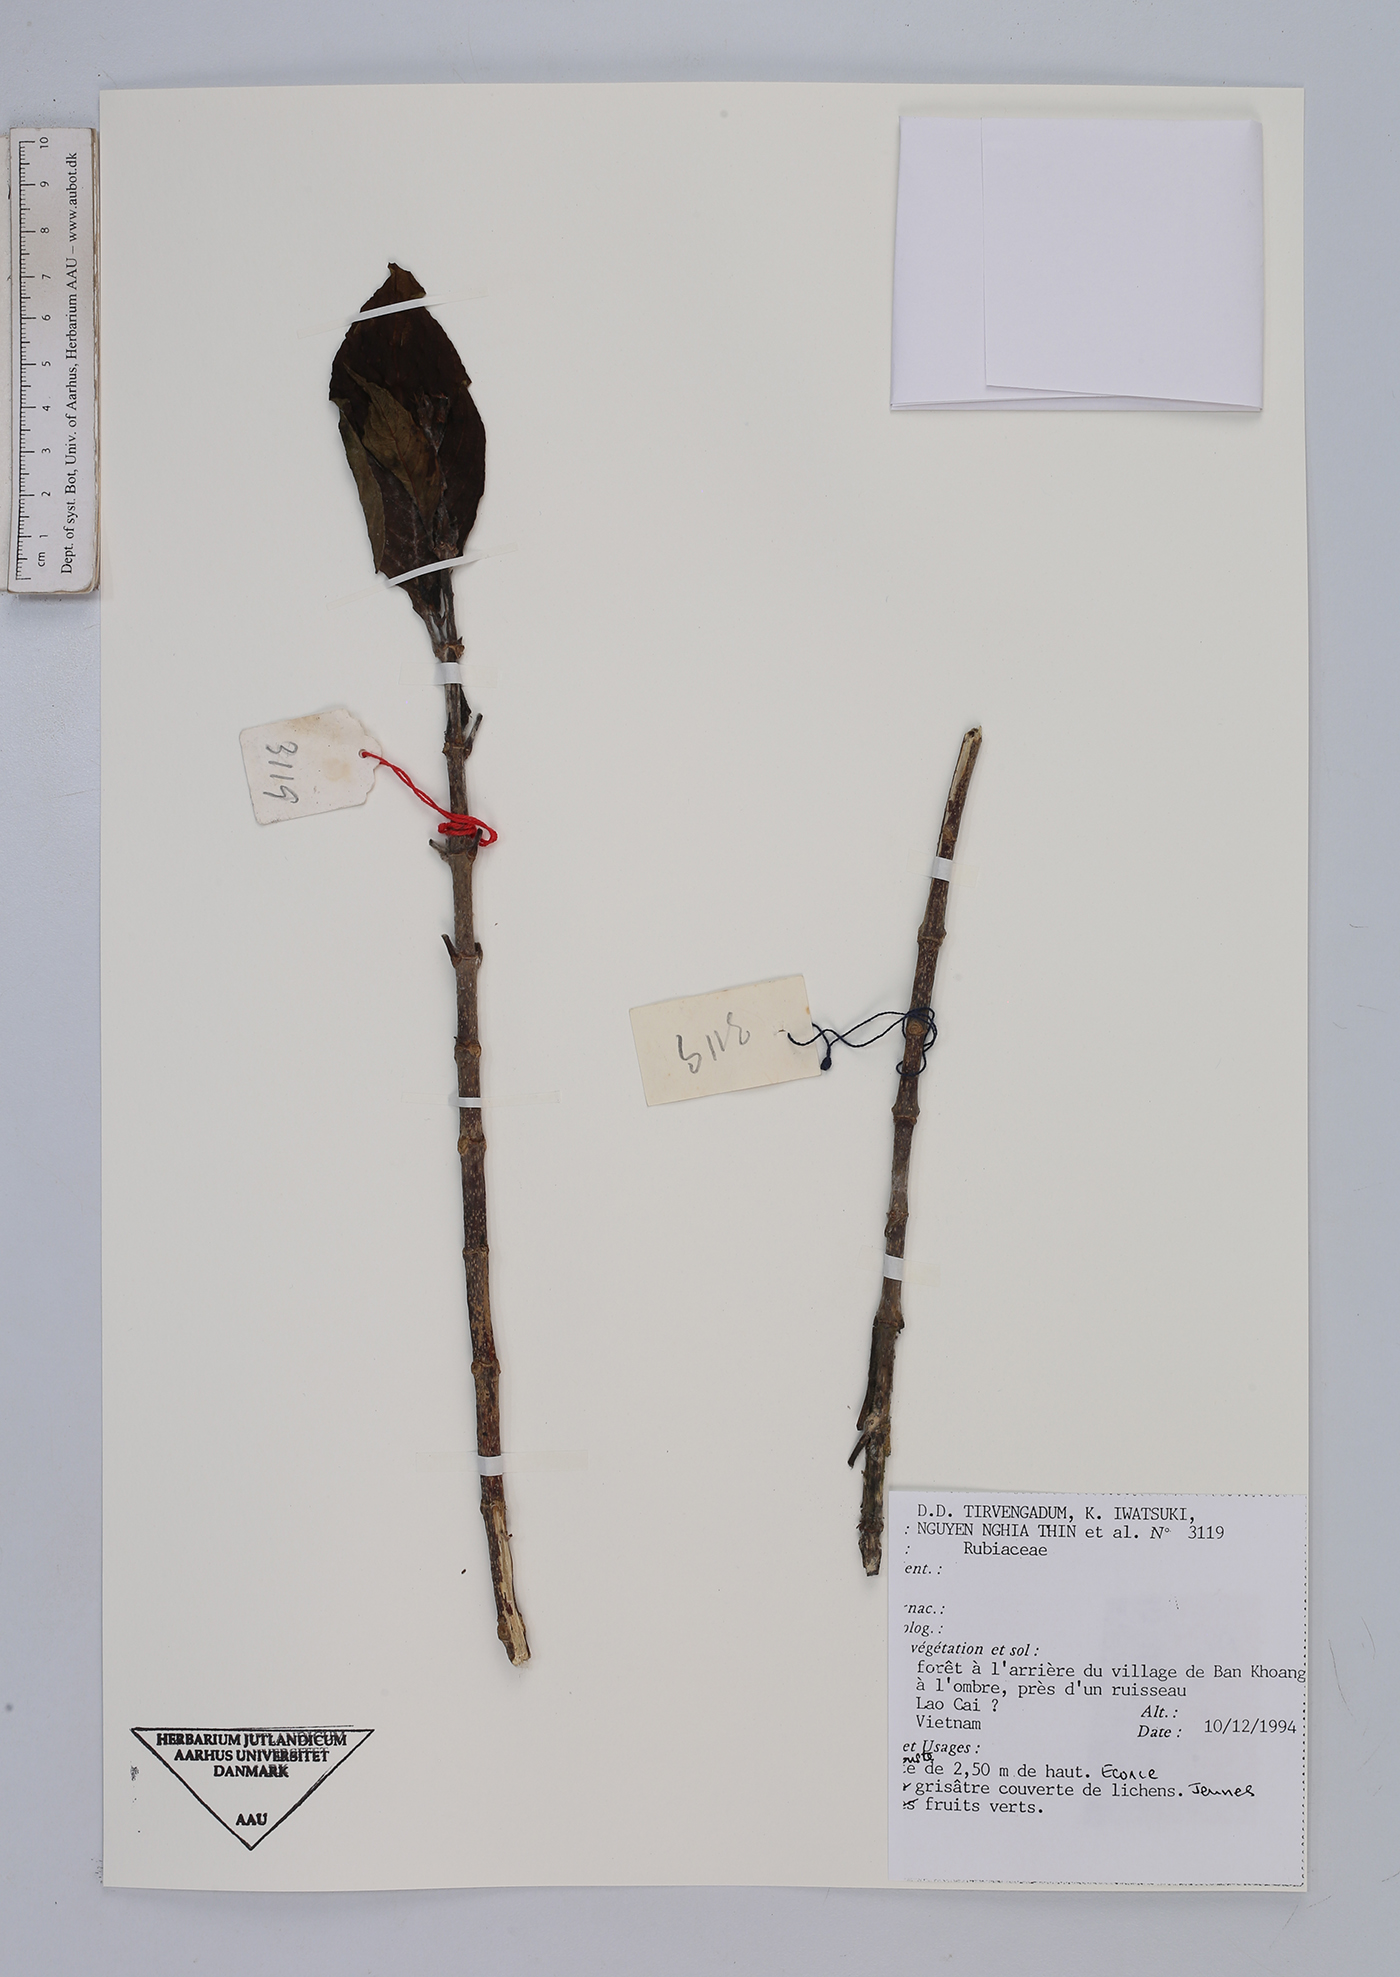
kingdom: Plantae
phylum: Tracheophyta
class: Magnoliopsida
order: Gentianales
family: Rubiaceae
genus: Urophyllum
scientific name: Urophyllum
